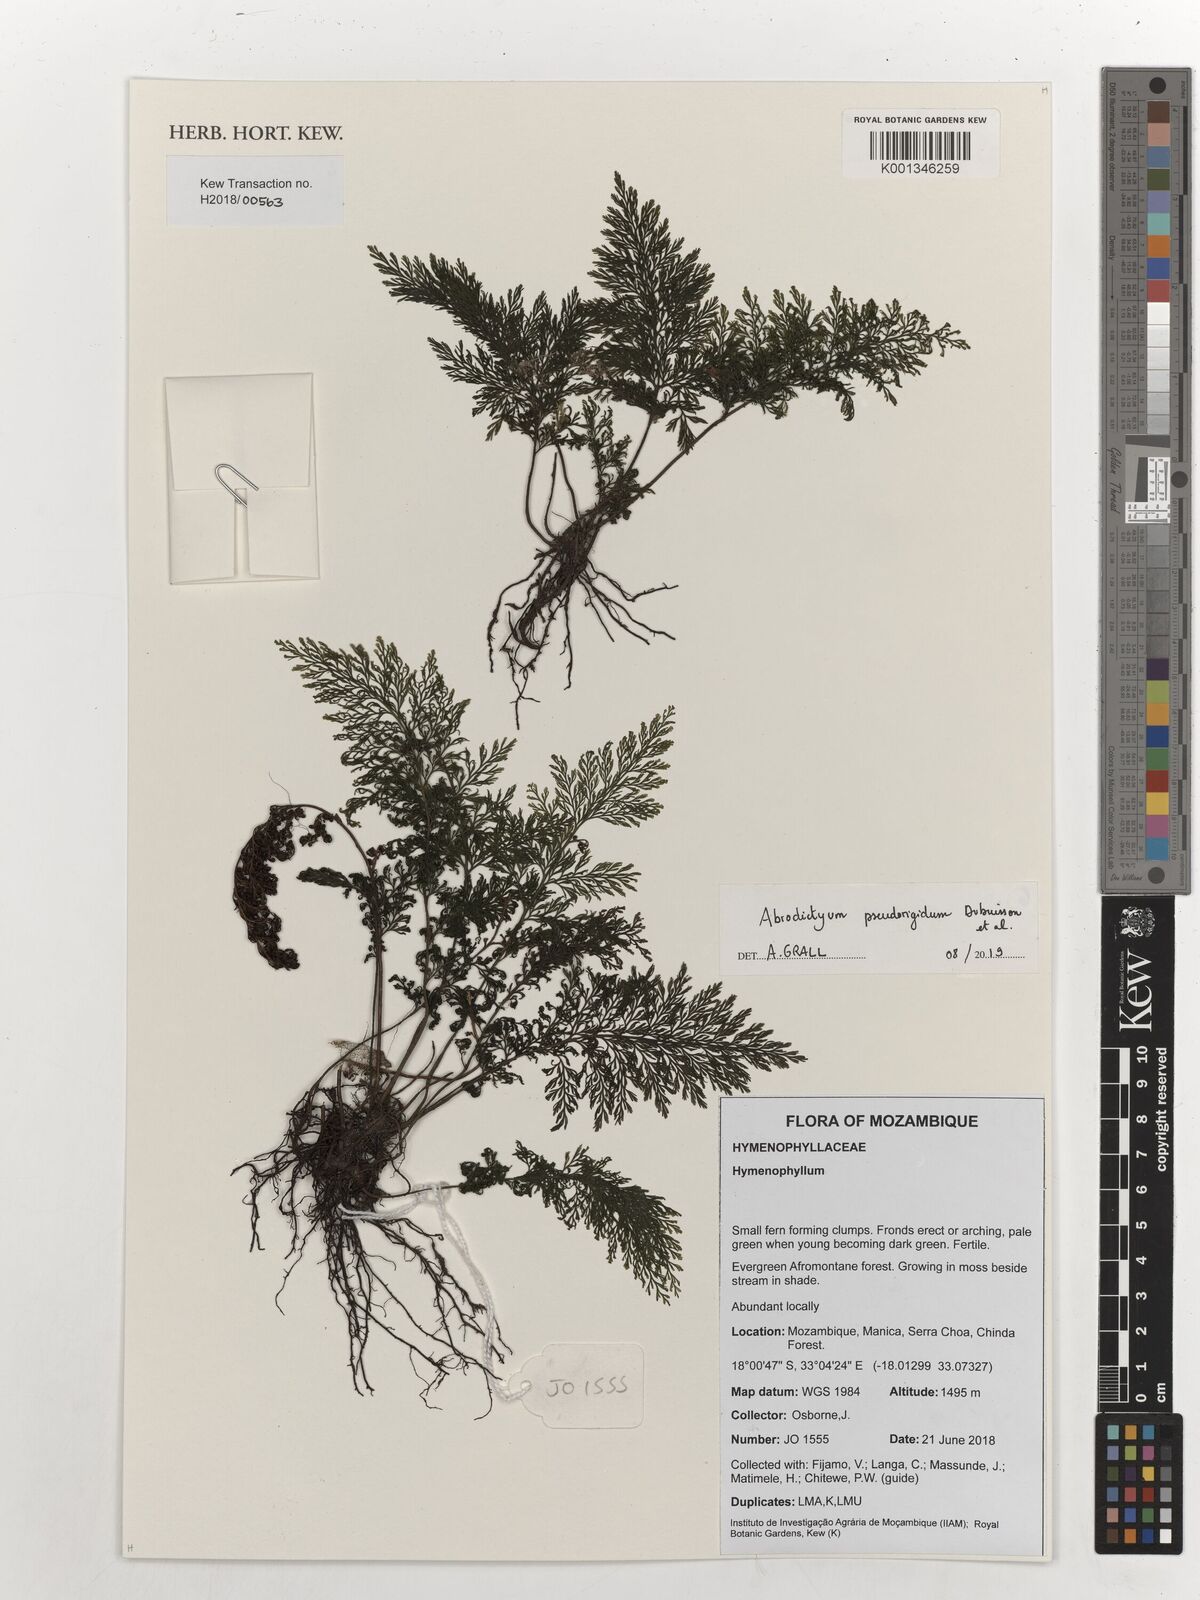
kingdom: Plantae
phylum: Tracheophyta
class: Polypodiopsida
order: Hymenophyllales
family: Hymenophyllaceae
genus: Abrodictyum
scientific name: Abrodictyum dregei
